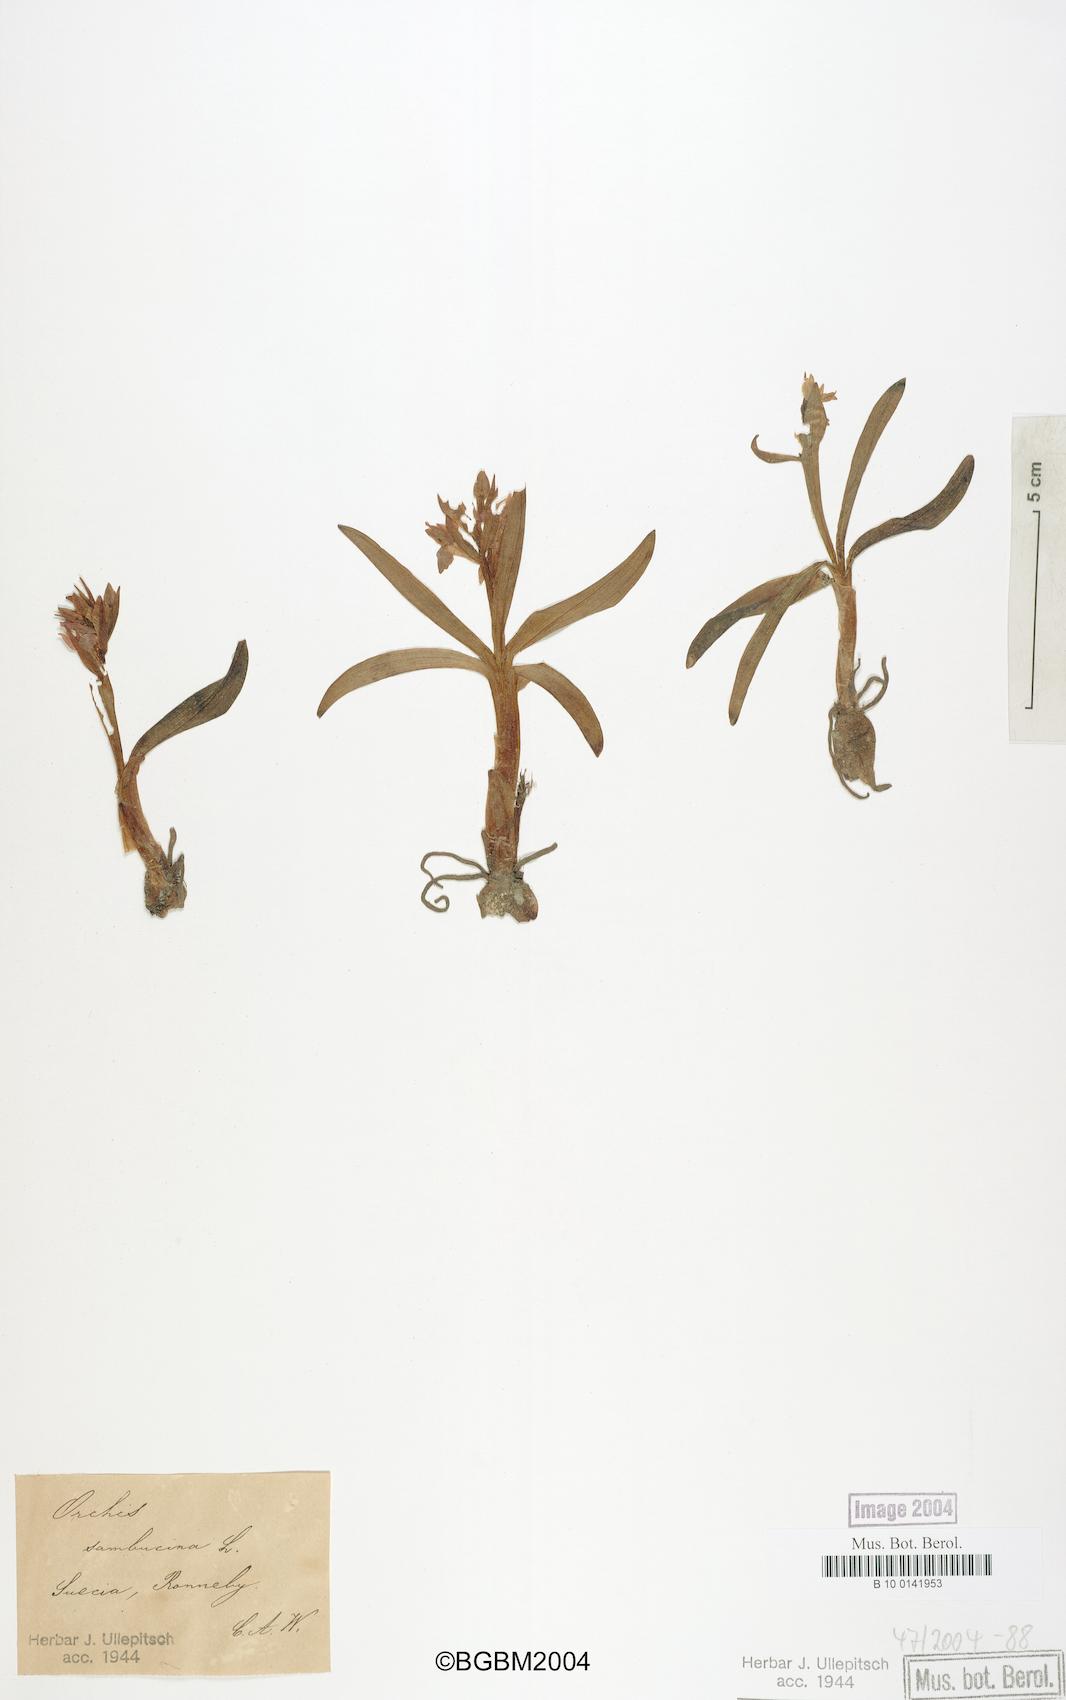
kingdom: Plantae
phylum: Tracheophyta
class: Liliopsida
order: Asparagales
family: Orchidaceae
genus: Dactylorhiza
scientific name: Dactylorhiza sambucina
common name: Elder-flowered orchid
